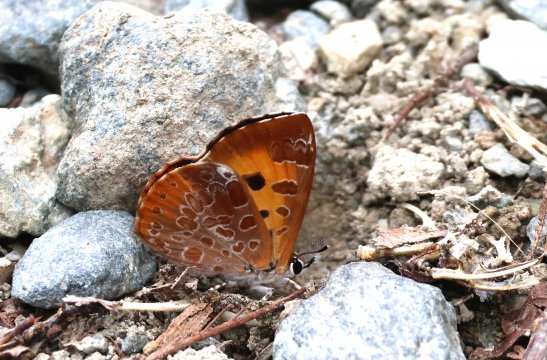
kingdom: Animalia
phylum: Arthropoda
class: Insecta
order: Lepidoptera
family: Lycaenidae
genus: Feniseca
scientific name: Feniseca tarquinius
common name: Harvester
